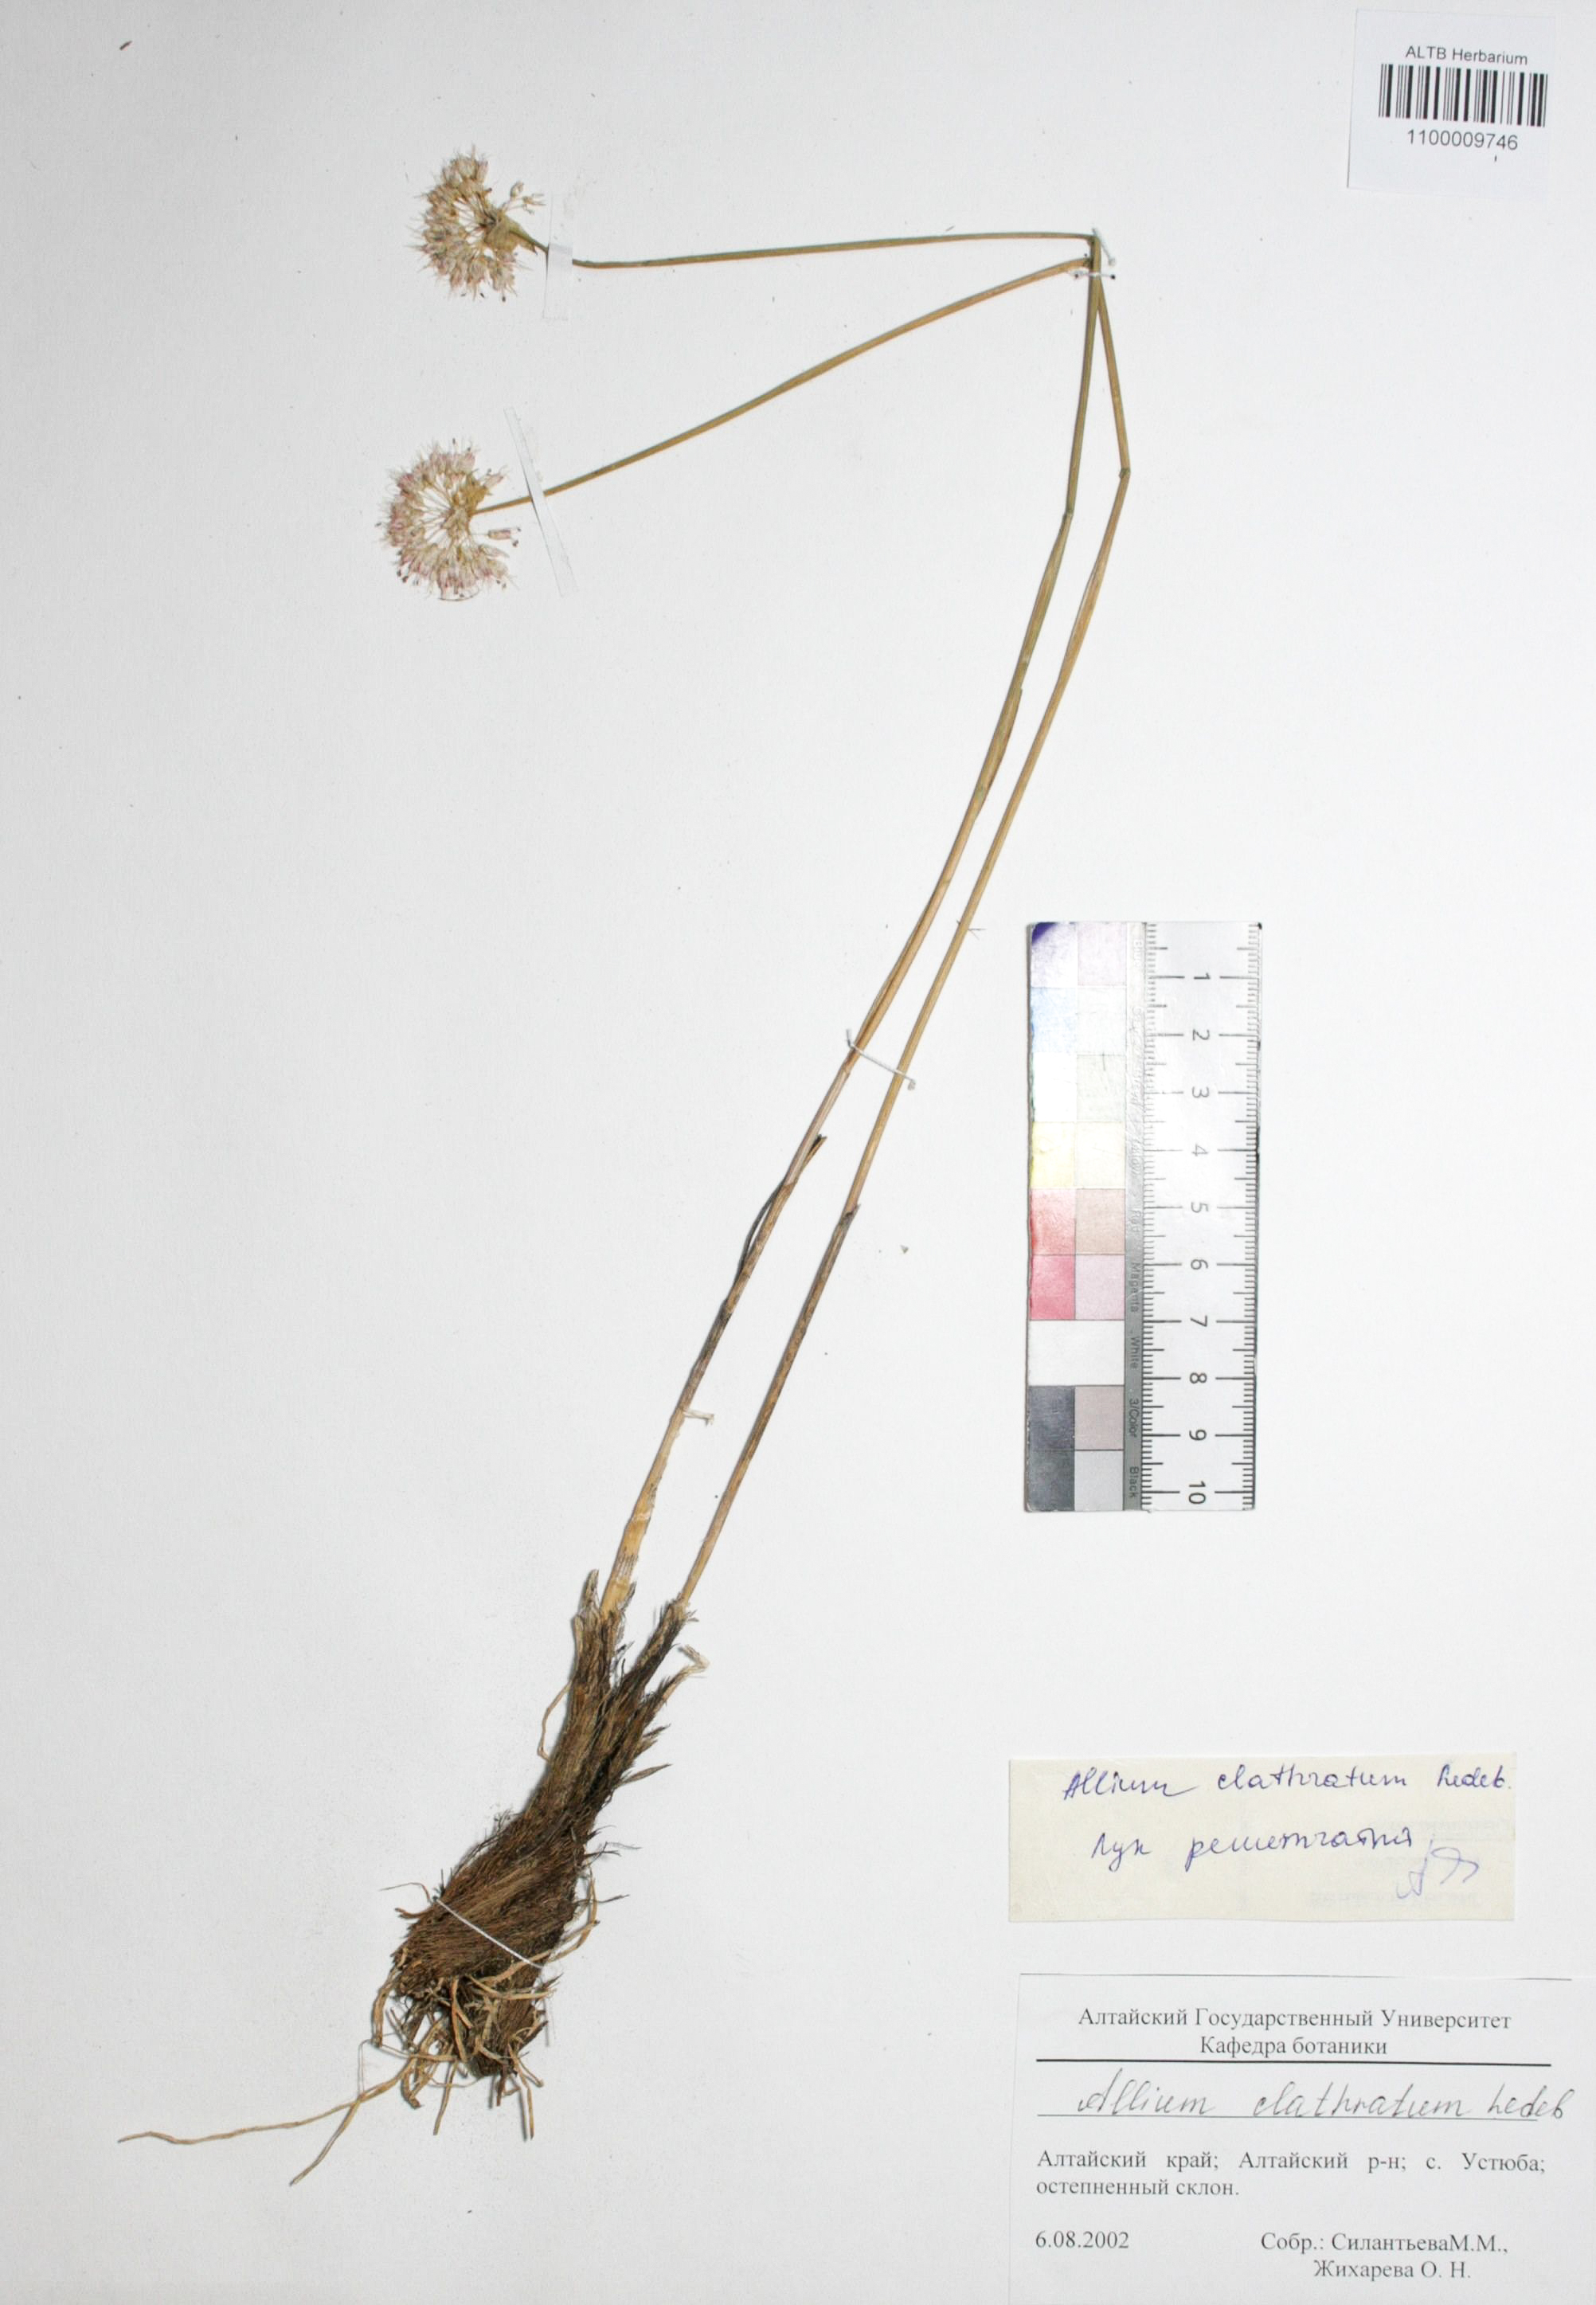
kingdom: Plantae
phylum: Tracheophyta
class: Liliopsida
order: Asparagales
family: Amaryllidaceae
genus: Allium
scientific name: Allium clathratum
